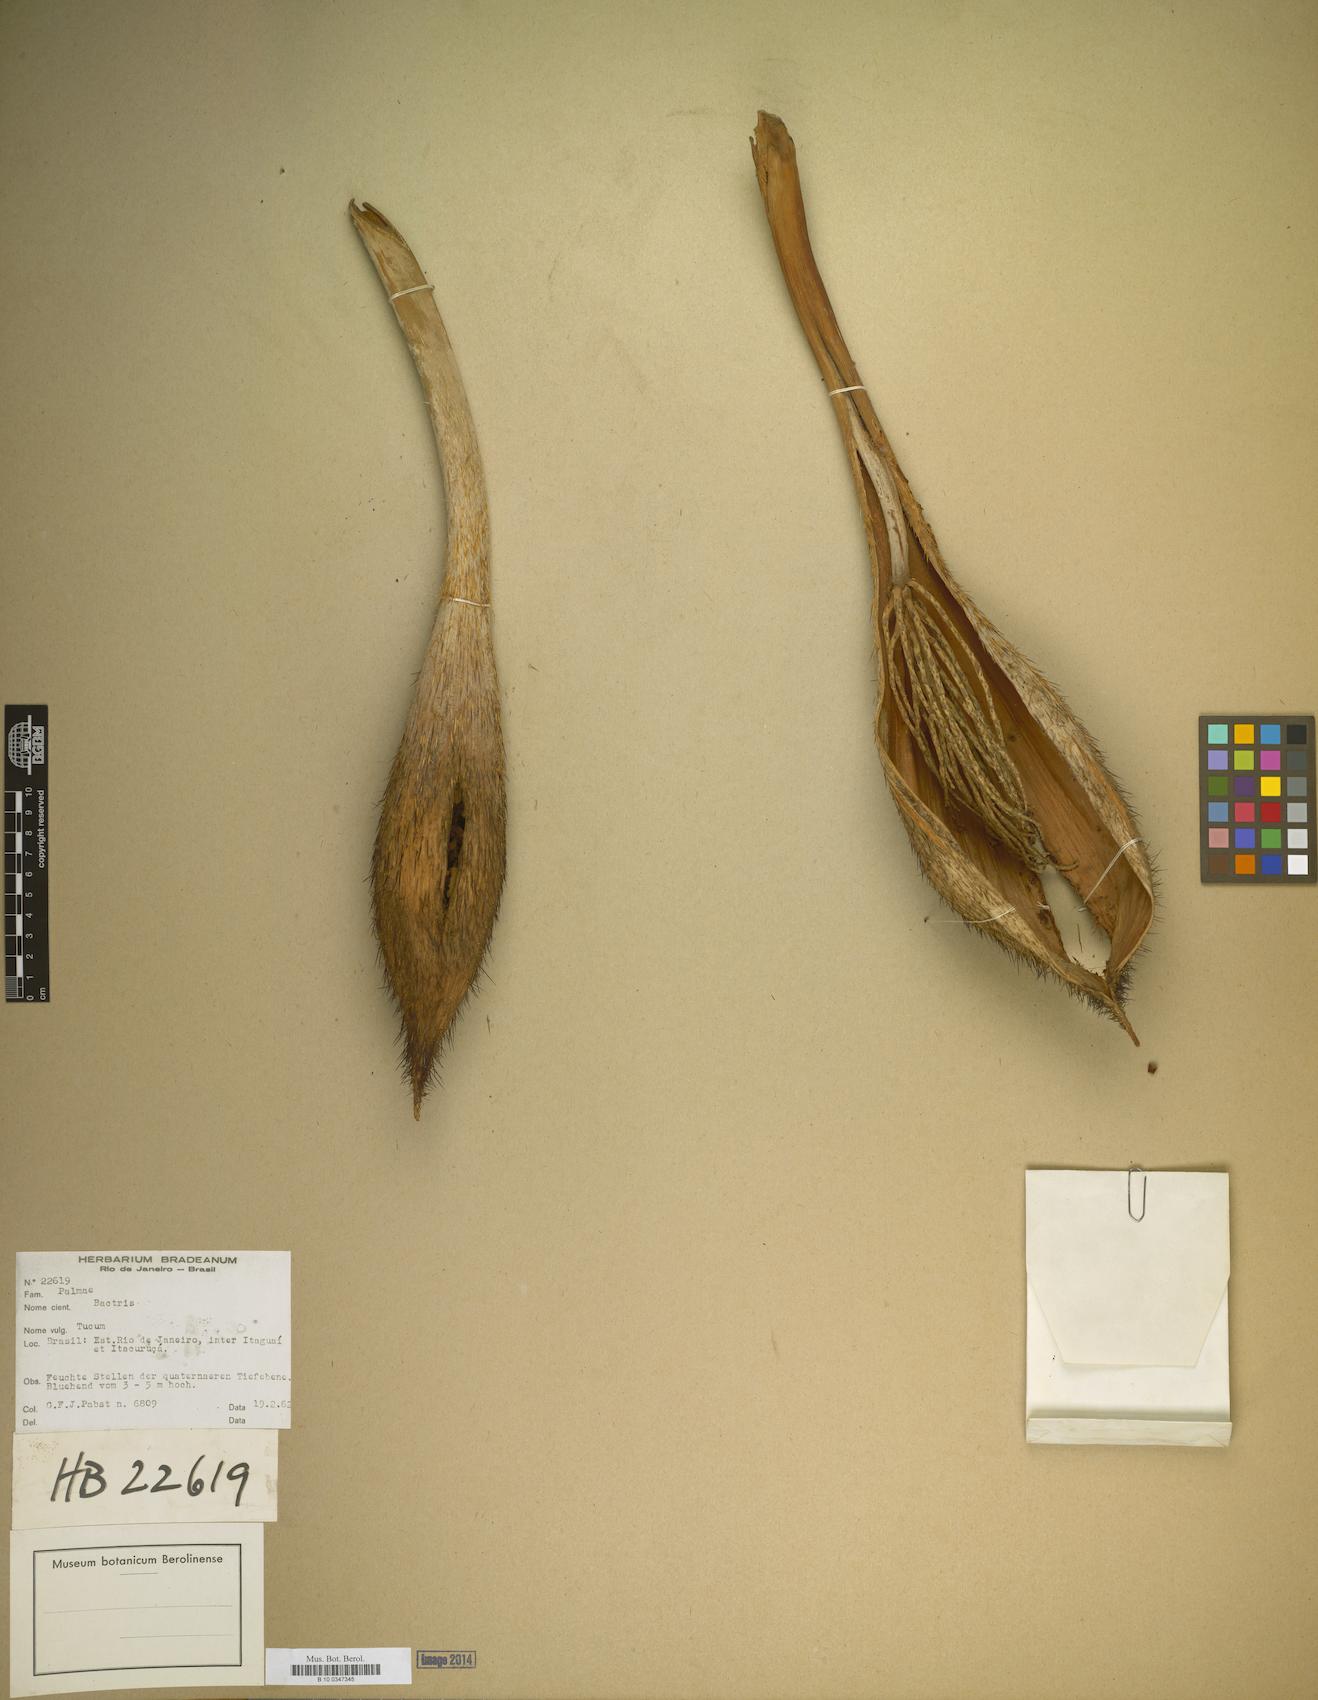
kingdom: Plantae
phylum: Tracheophyta
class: Liliopsida
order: Arecales
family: Arecaceae
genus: Bactris
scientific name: Bactris
